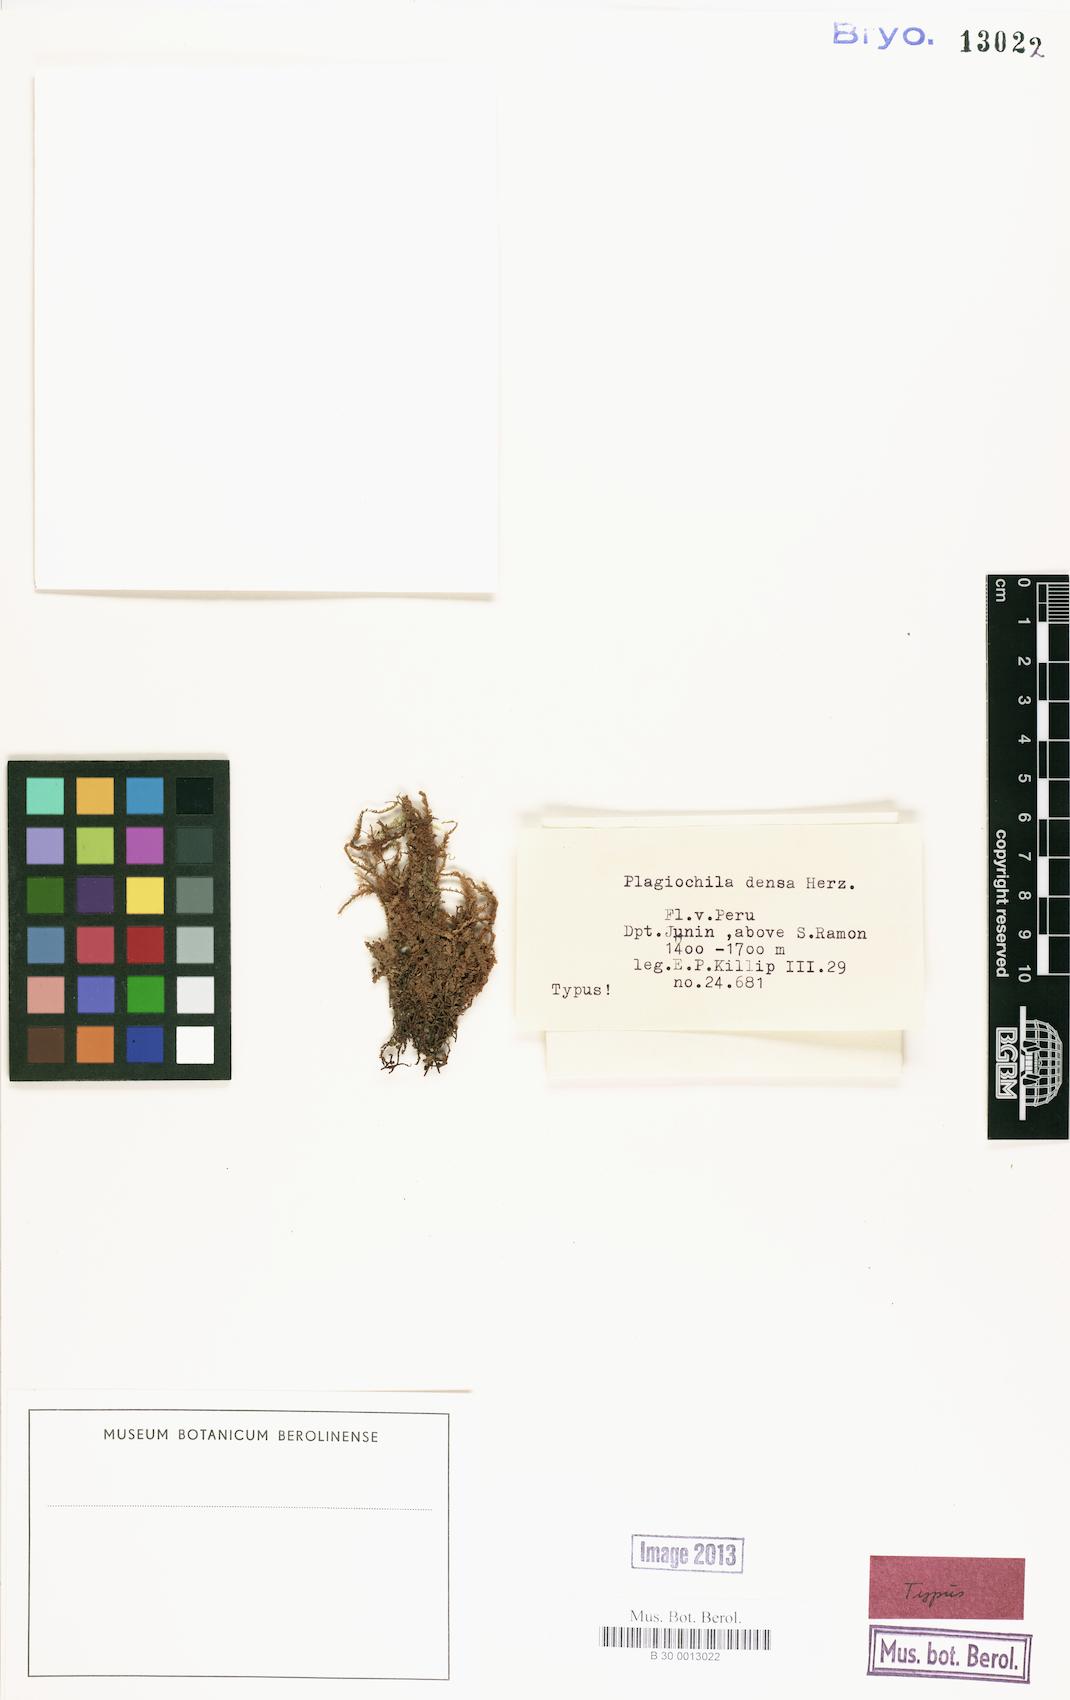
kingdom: Plantae
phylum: Marchantiophyta
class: Jungermanniopsida
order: Jungermanniales
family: Plagiochilaceae
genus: Plagiochila
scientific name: Plagiochila densa
